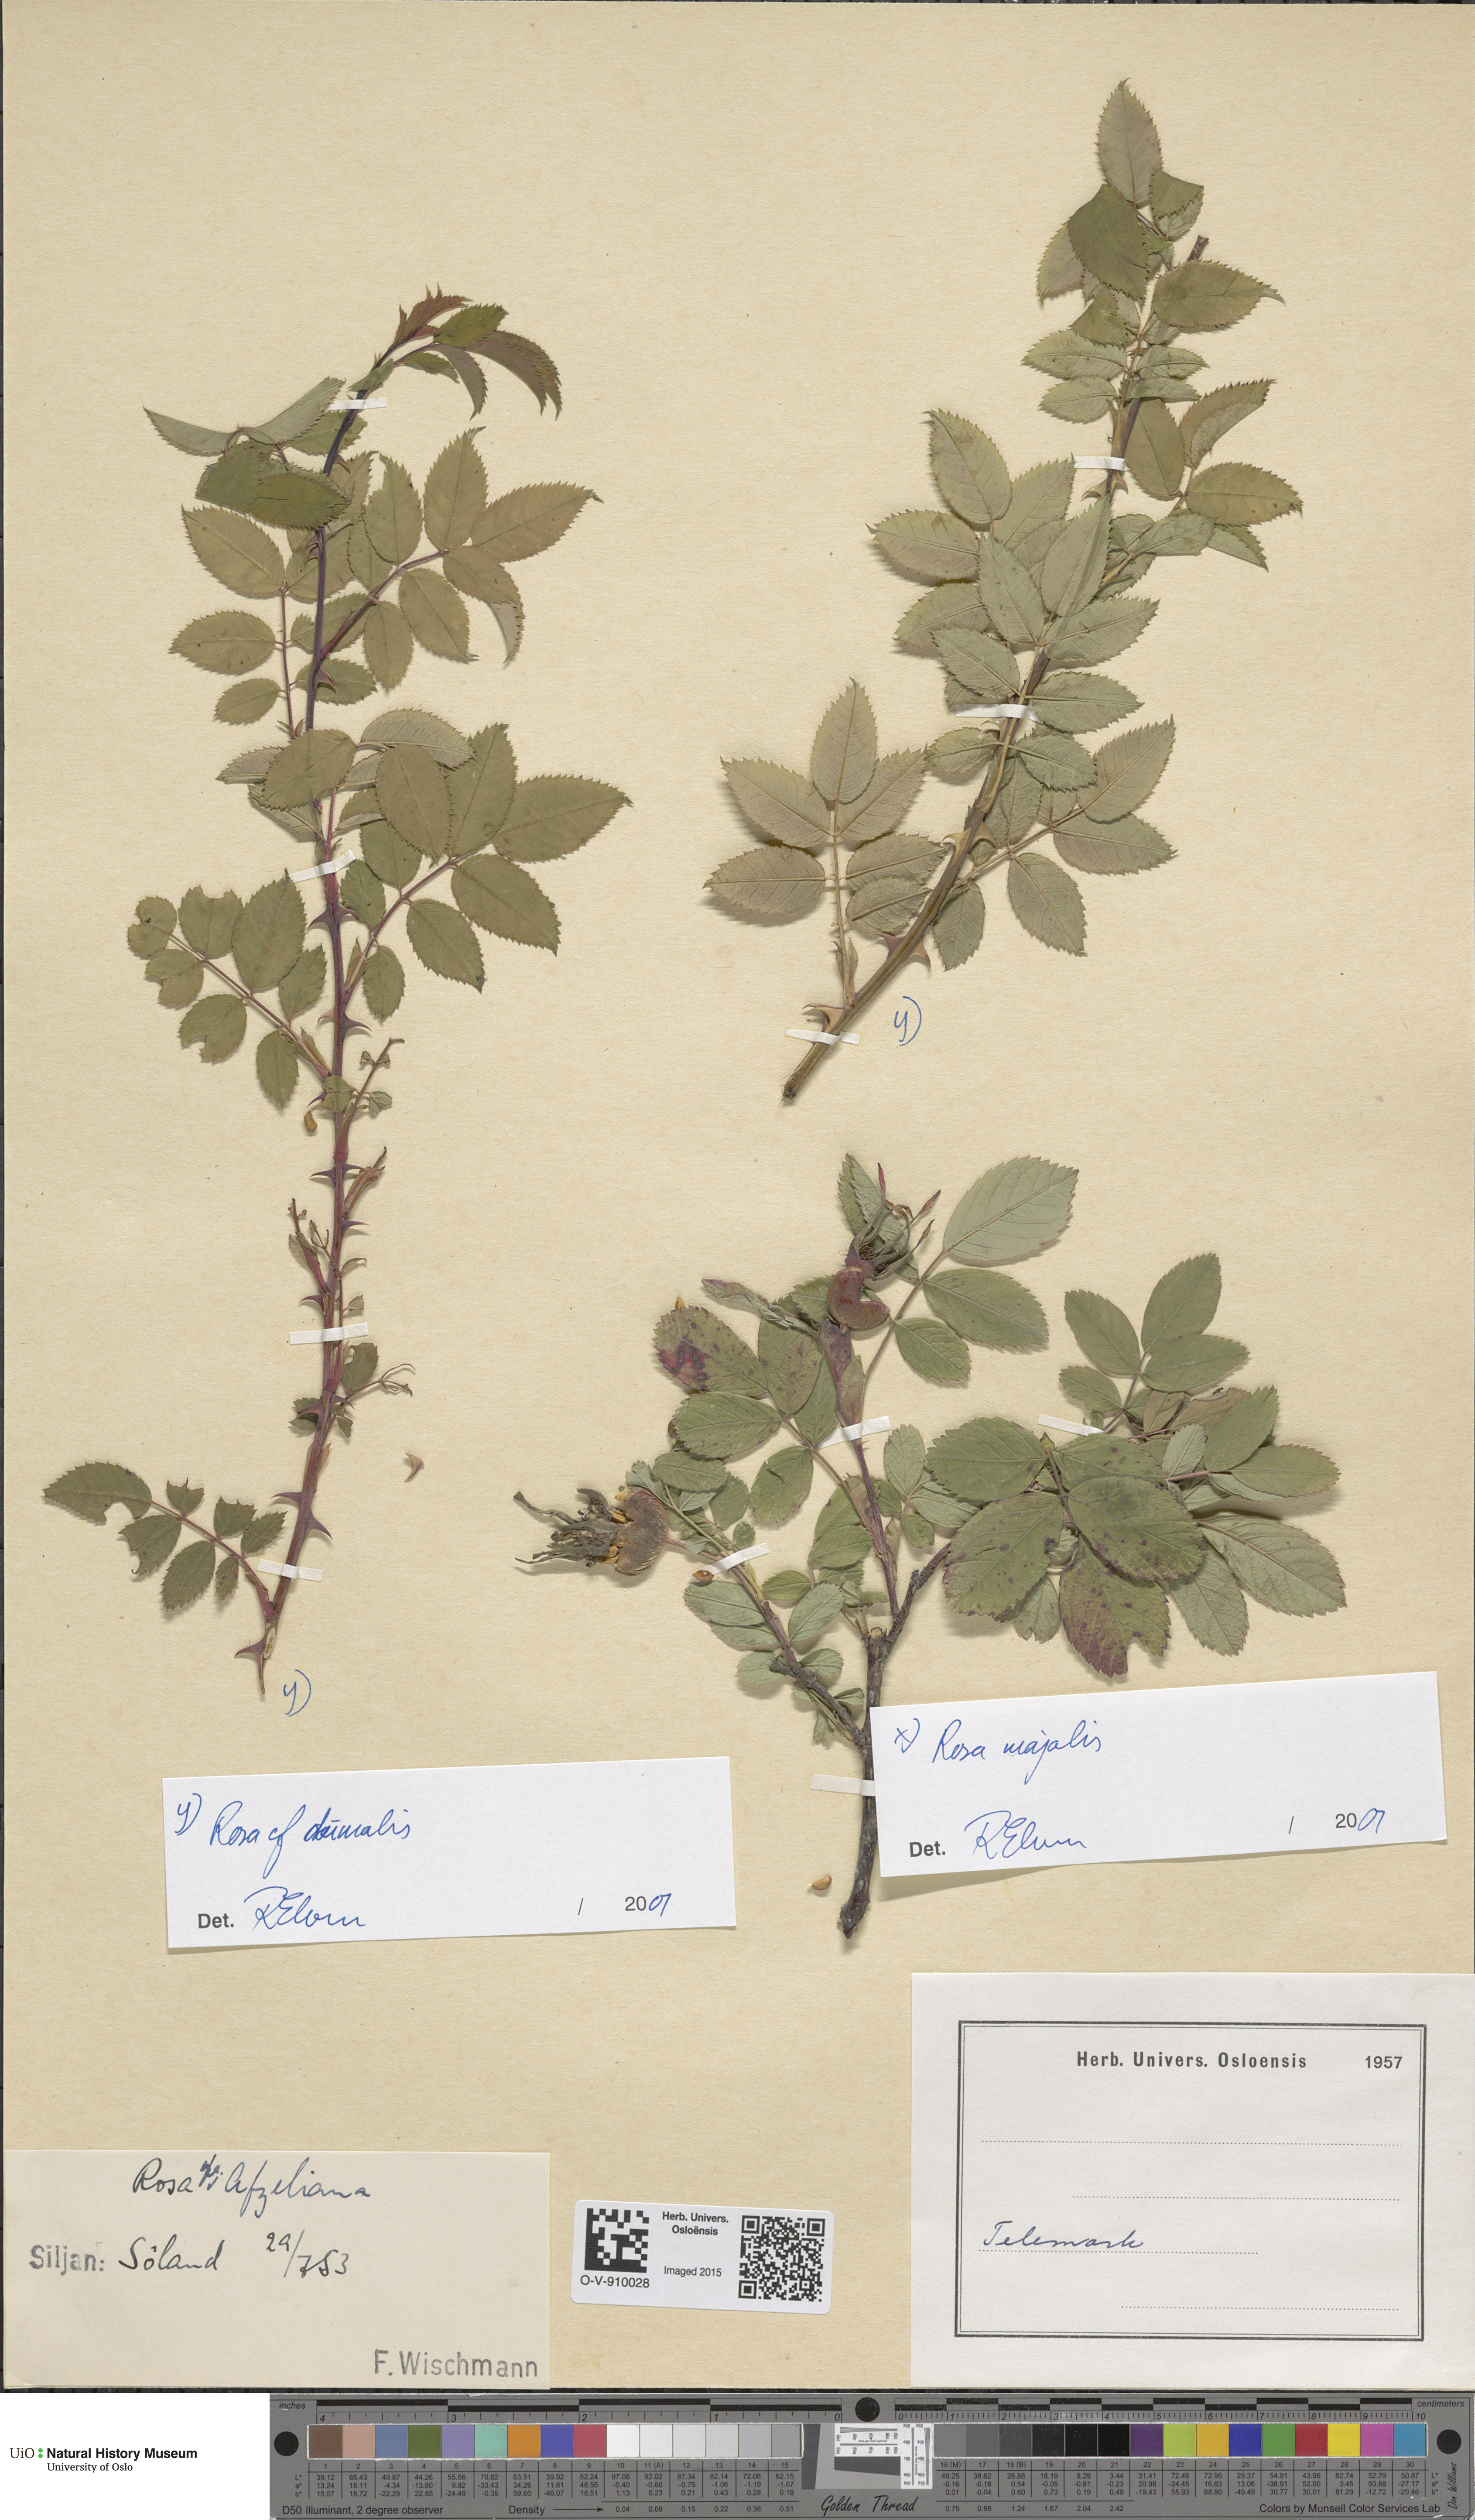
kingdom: Plantae
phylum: Tracheophyta
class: Magnoliopsida
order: Rosales
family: Rosaceae
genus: Rosa
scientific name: Rosa majalis
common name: Cinnamon rose
